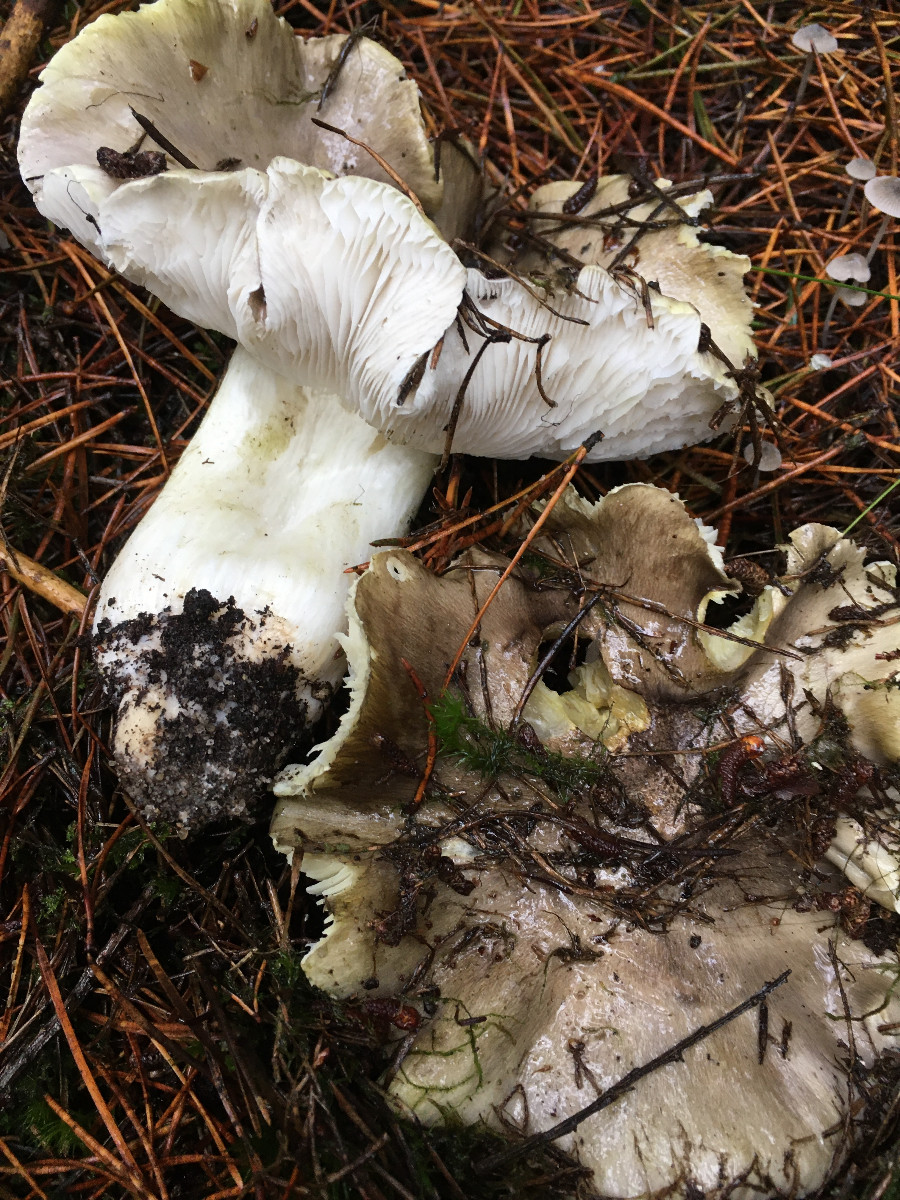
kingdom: Fungi
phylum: Basidiomycota
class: Agaricomycetes
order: Agaricales
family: Tricholomataceae
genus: Tricholoma
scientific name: Tricholoma portentosum
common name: grå ridderhat
